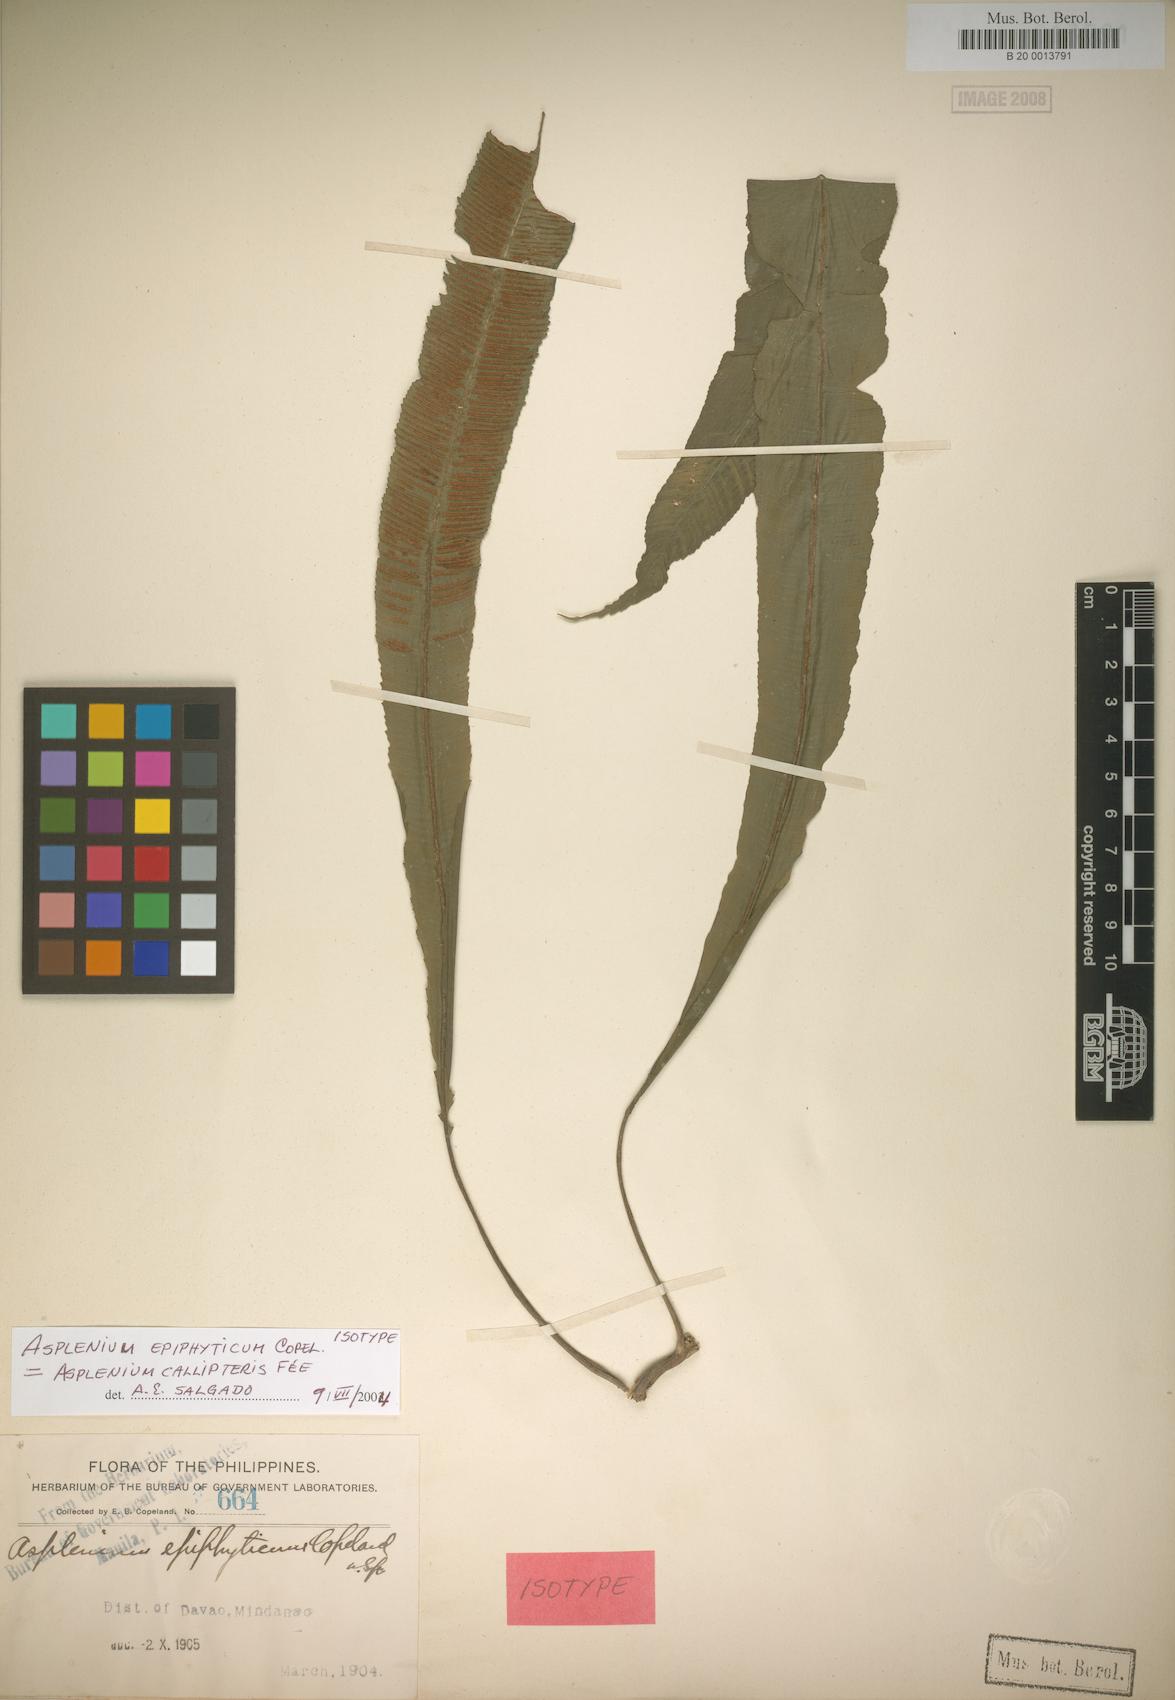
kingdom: Plantae
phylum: Tracheophyta
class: Polypodiopsida
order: Polypodiales
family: Aspleniaceae
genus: Asplenium
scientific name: Asplenium callipteris
